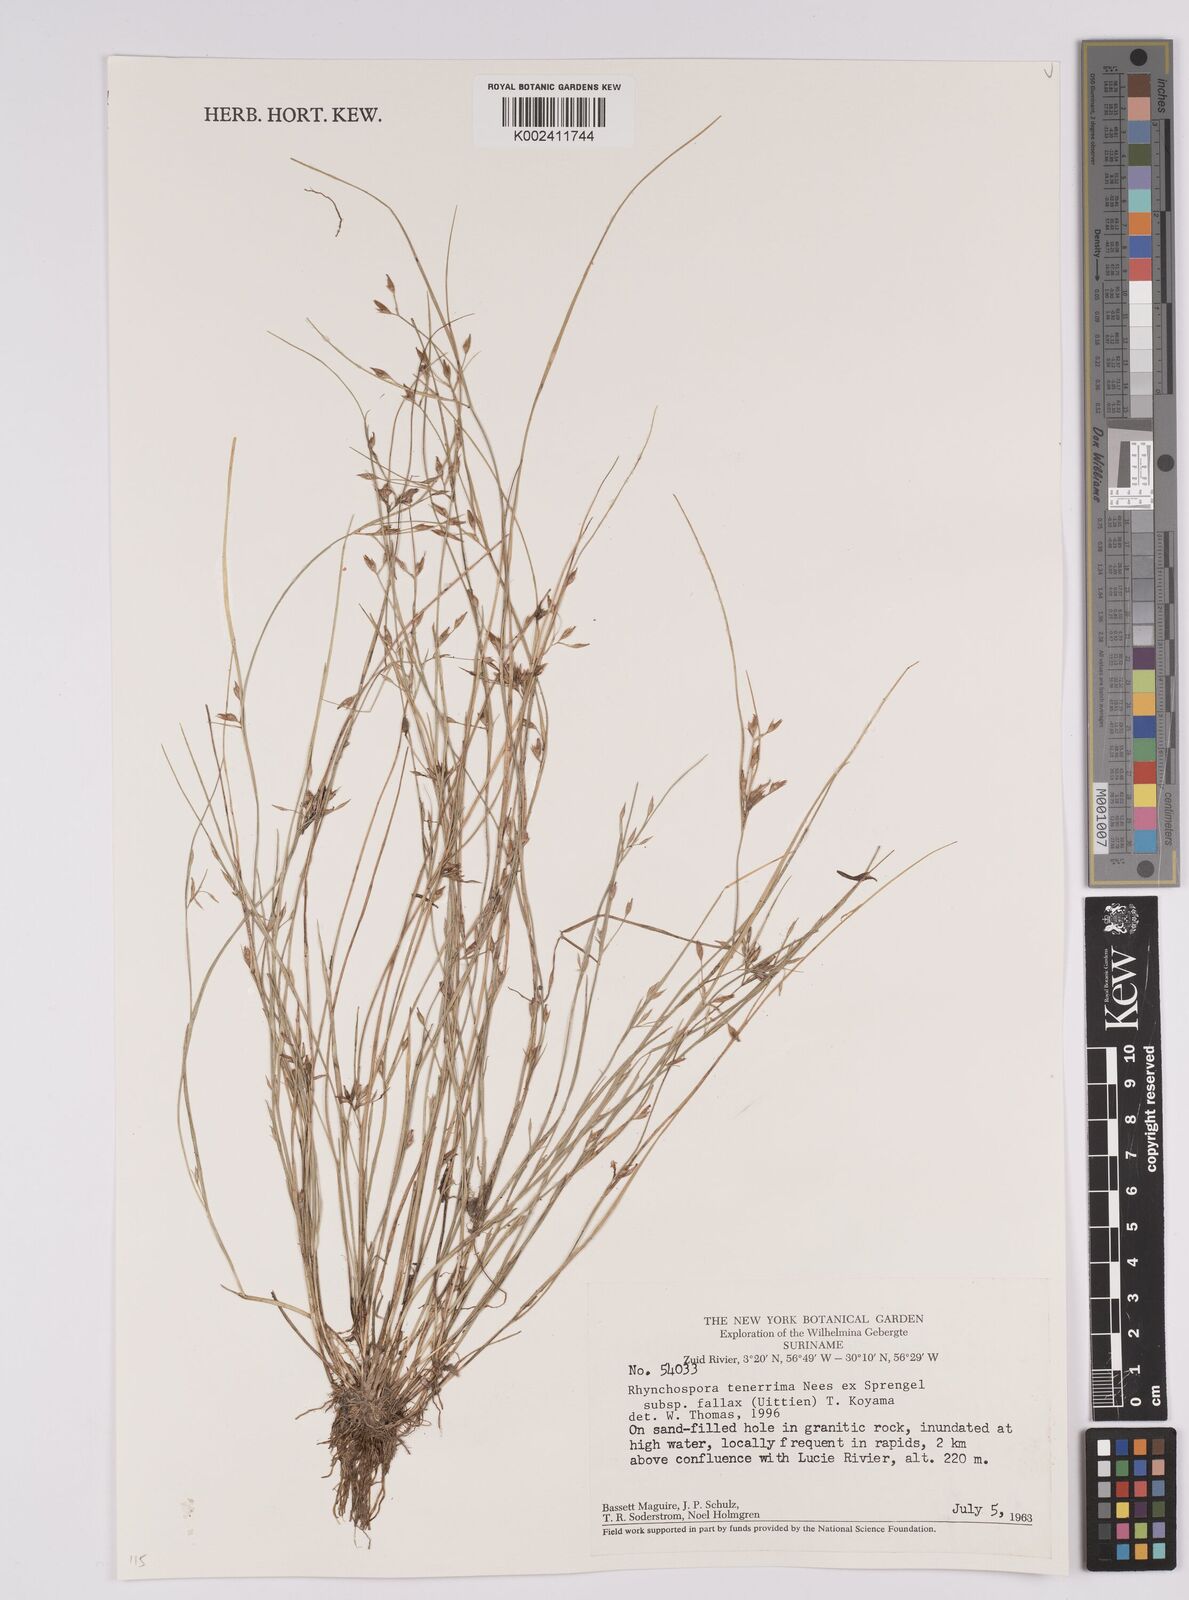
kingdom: Plantae
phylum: Tracheophyta
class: Liliopsida
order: Poales
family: Cyperaceae
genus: Rhynchospora
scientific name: Rhynchospora fallax
